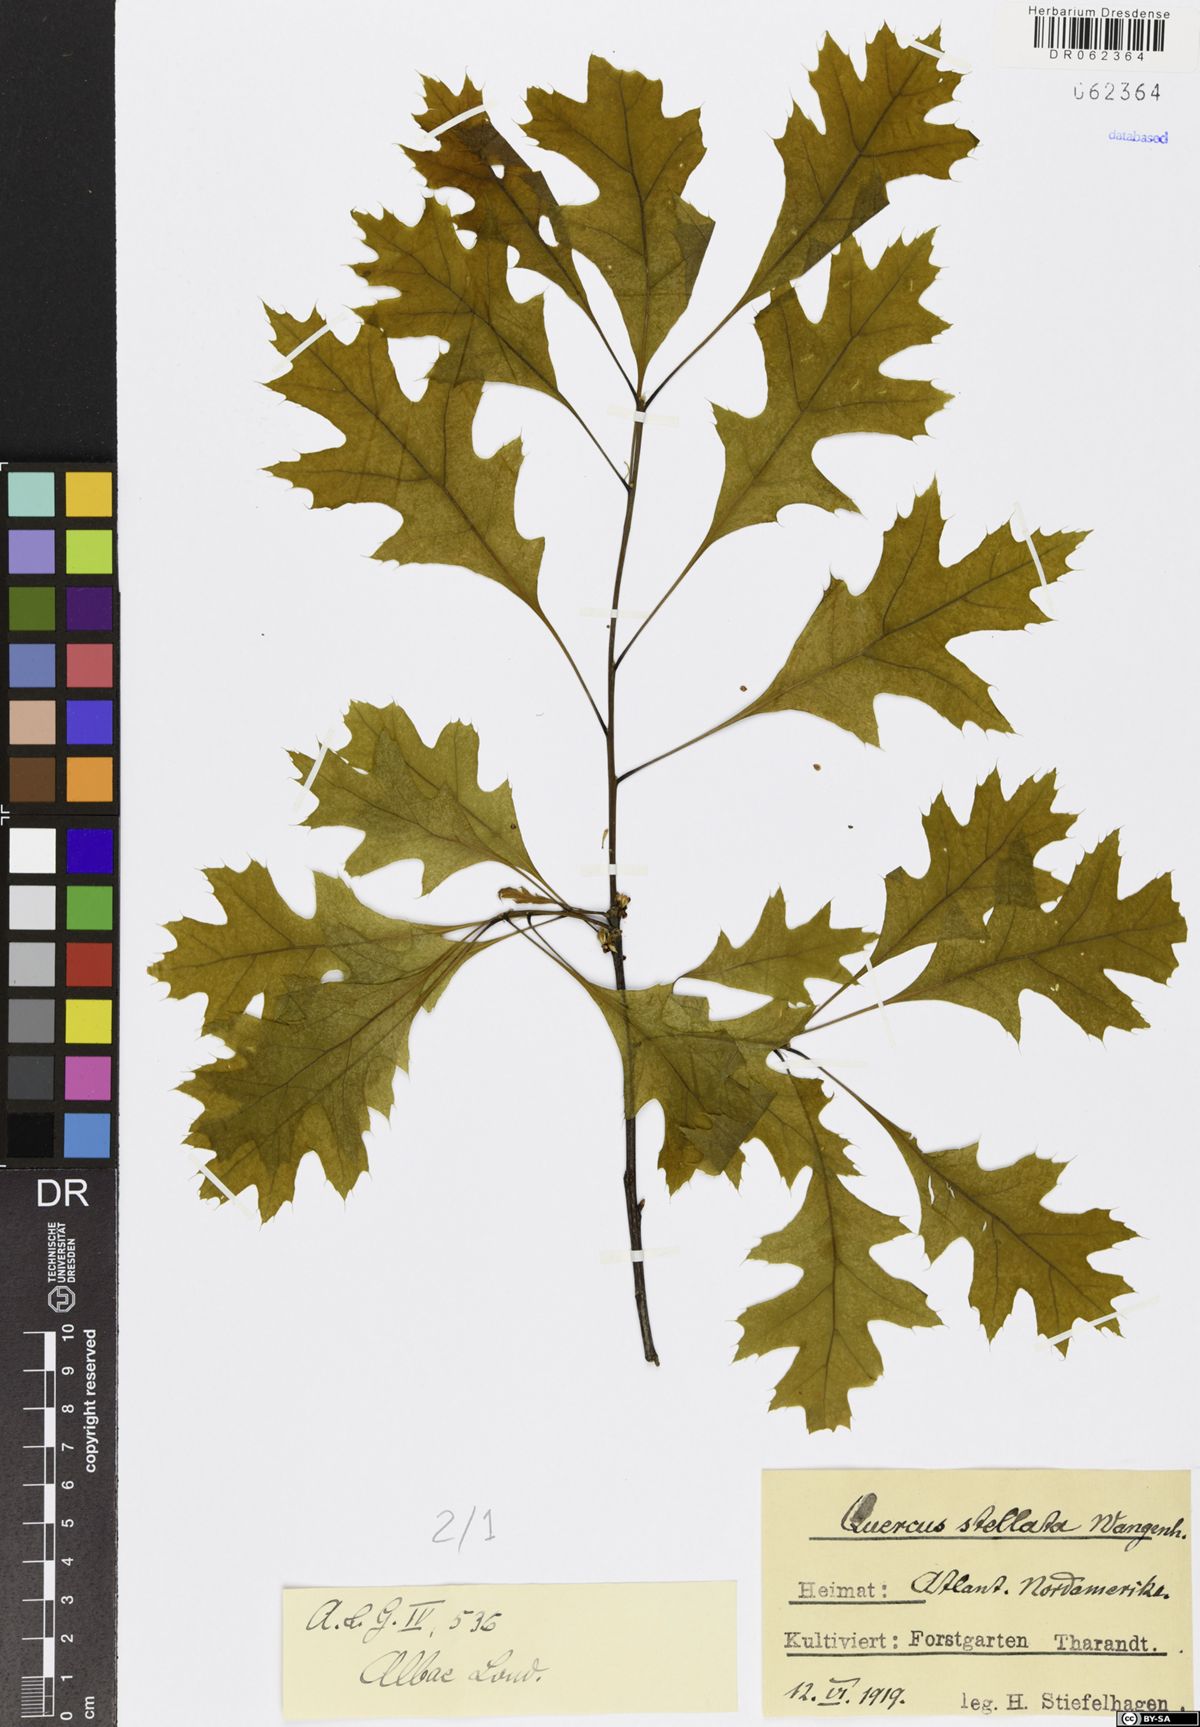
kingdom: Plantae
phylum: Tracheophyta
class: Magnoliopsida
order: Fagales
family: Fagaceae
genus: Quercus
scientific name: Quercus stellata
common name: Post oak
